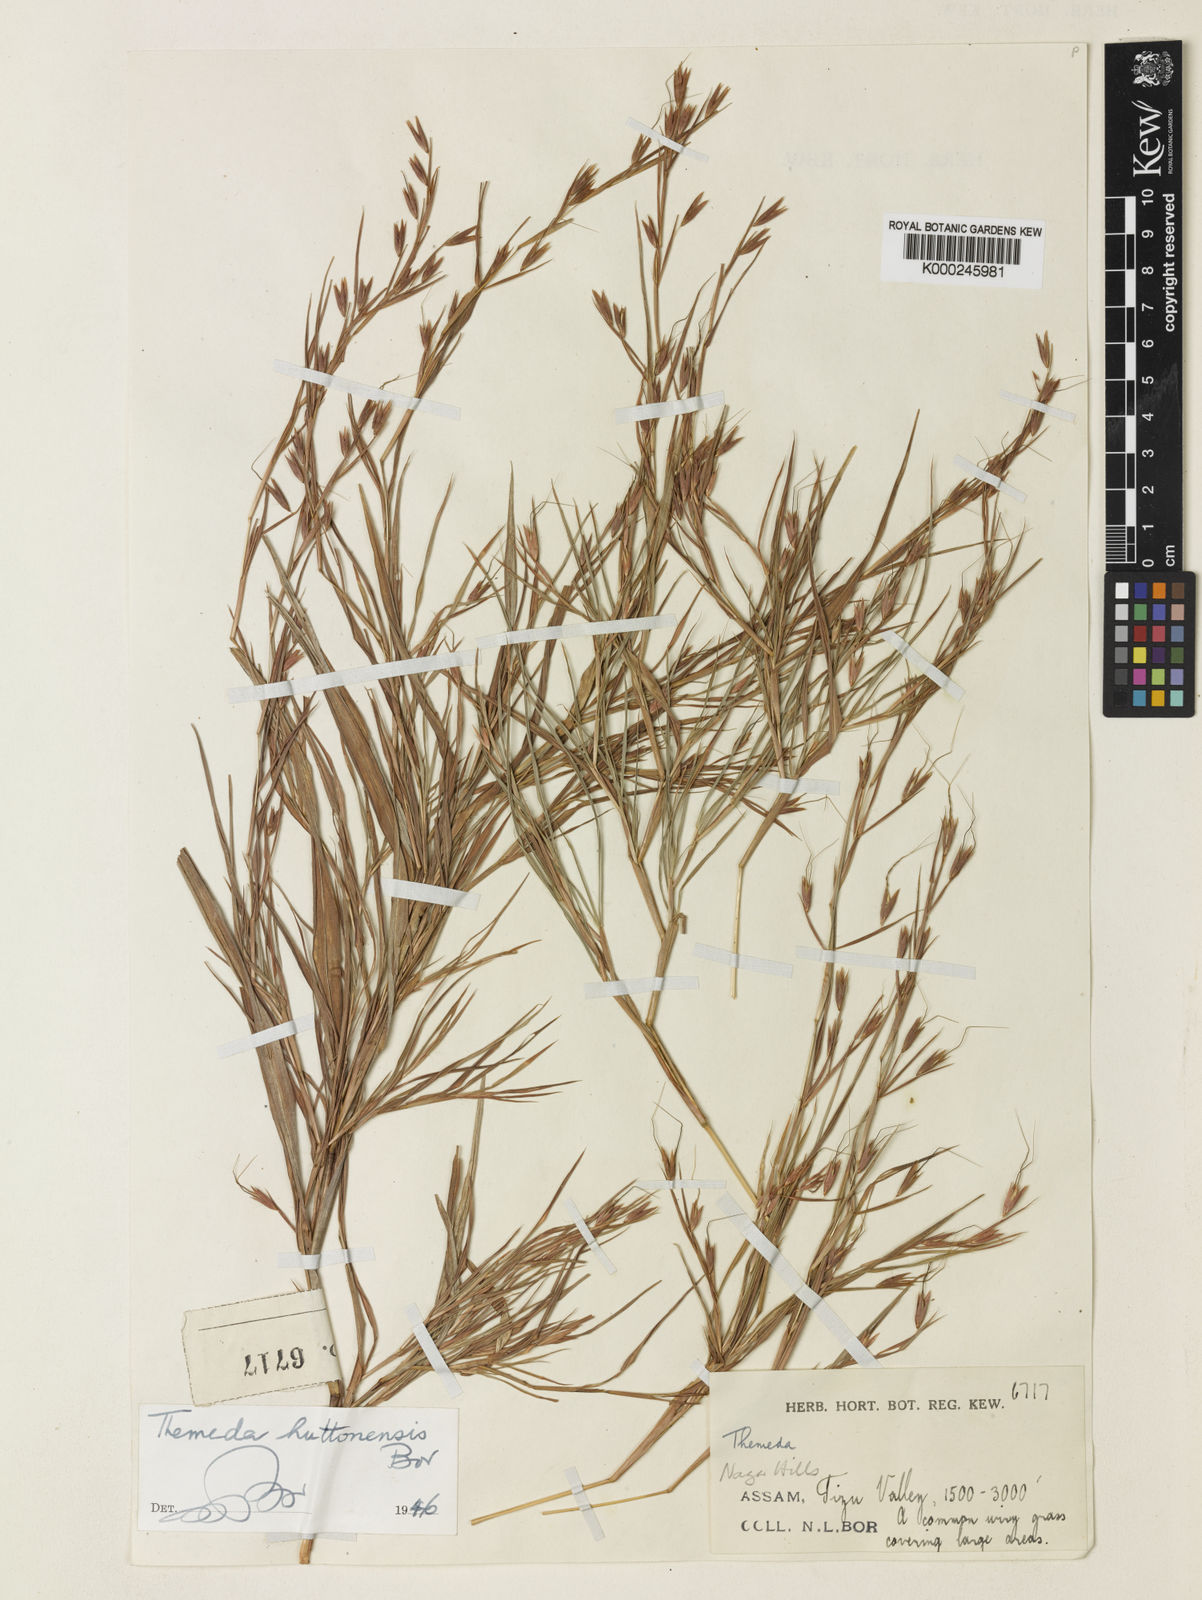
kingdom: Plantae
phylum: Tracheophyta
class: Liliopsida
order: Poales
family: Poaceae
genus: Themeda
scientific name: Themeda huttonensis
